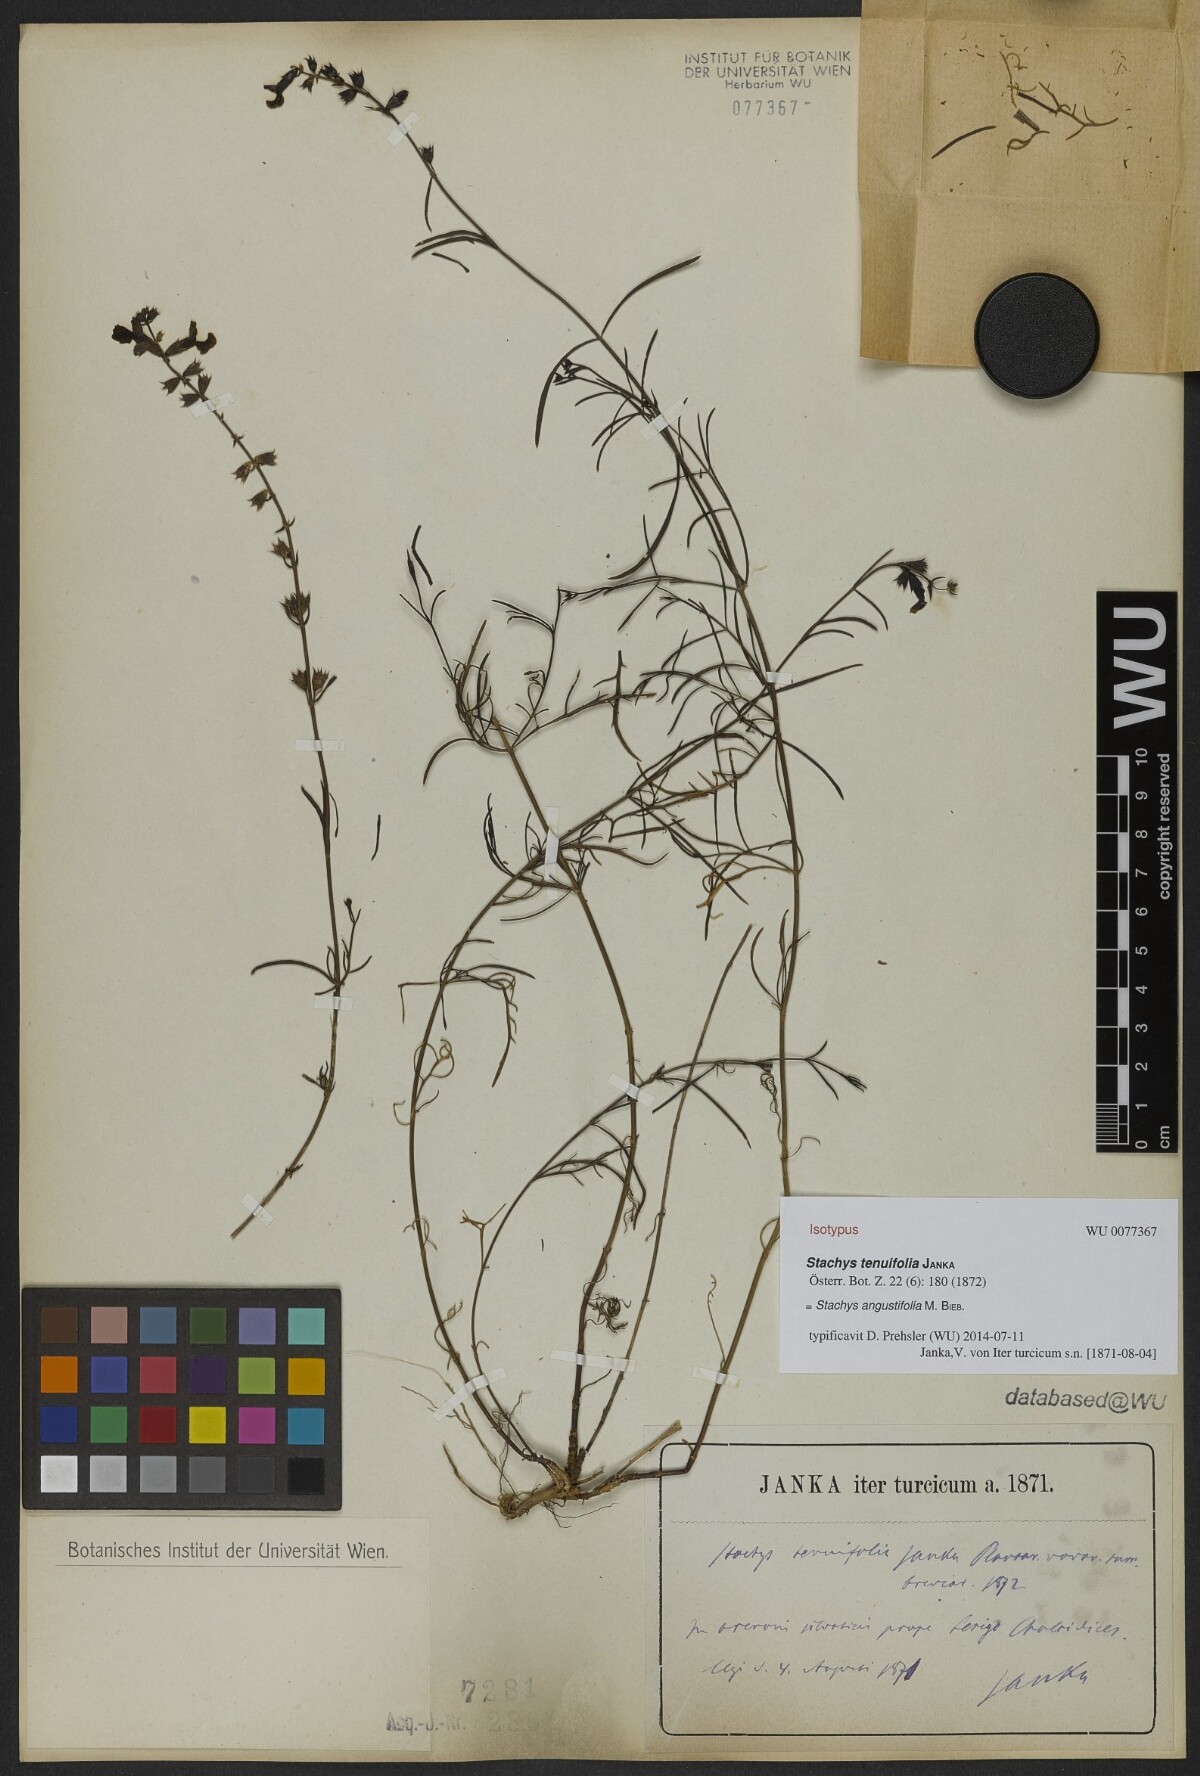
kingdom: Plantae
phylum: Tracheophyta
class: Magnoliopsida
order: Lamiales
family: Lamiaceae
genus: Stachys
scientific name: Stachys angustifolia
